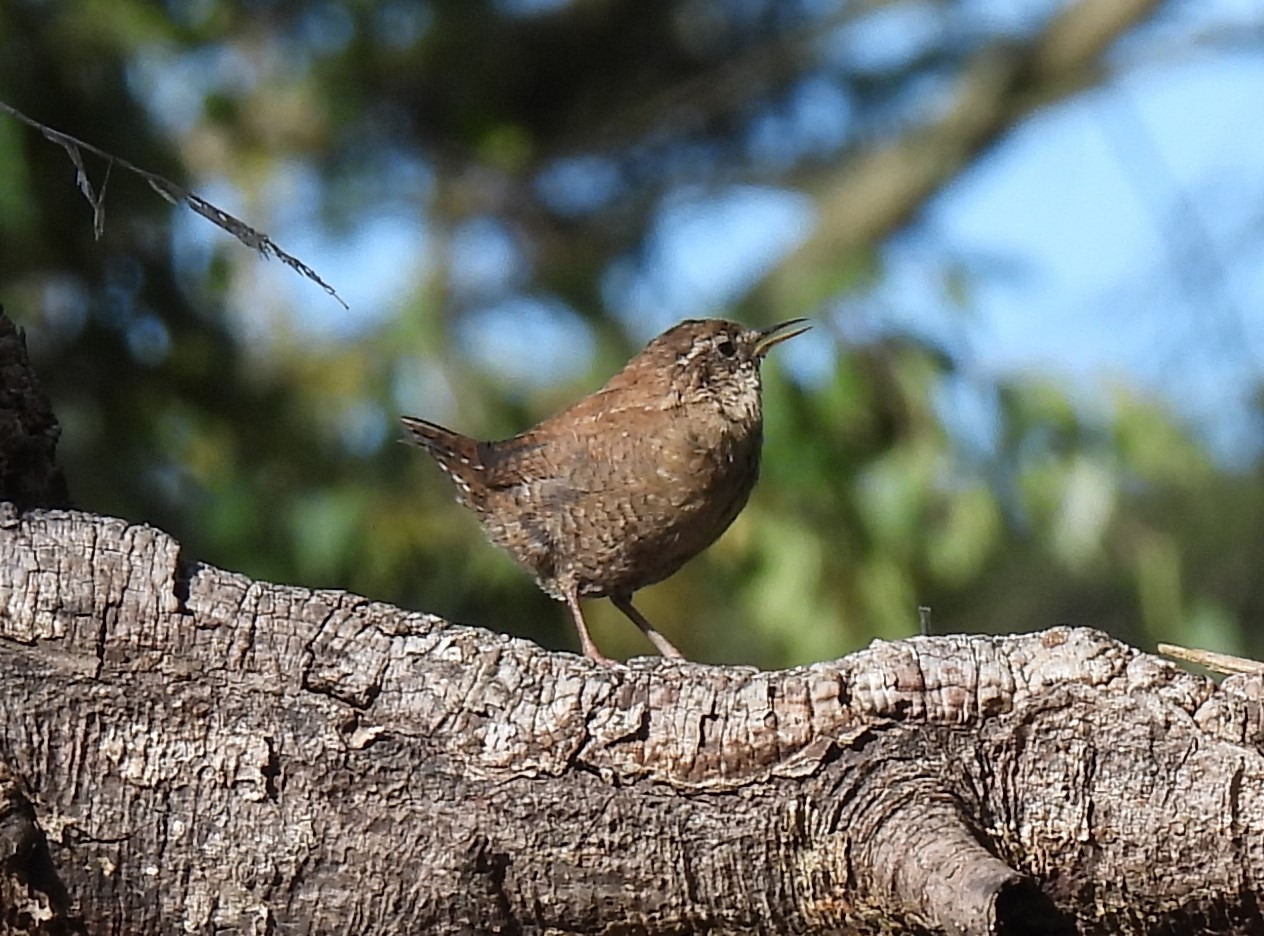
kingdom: Animalia
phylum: Chordata
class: Aves
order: Passeriformes
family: Troglodytidae
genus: Troglodytes
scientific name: Troglodytes troglodytes
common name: Gærdesmutte
